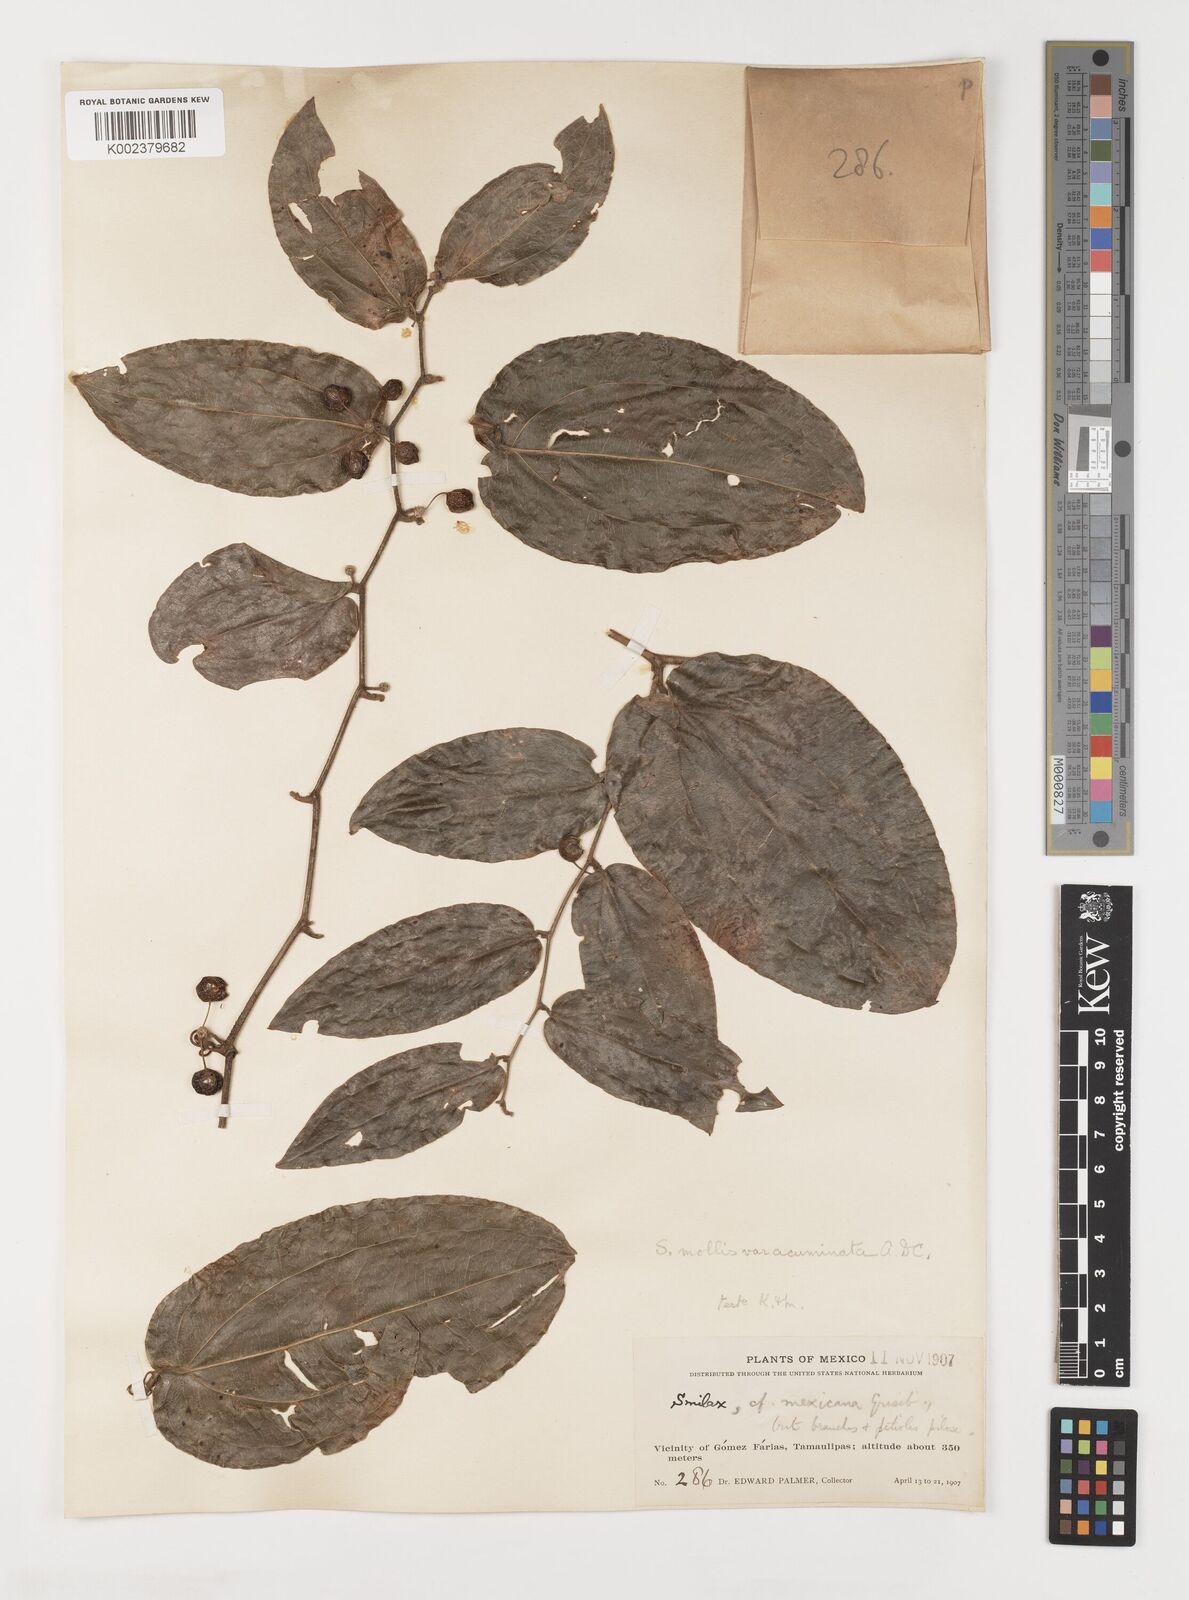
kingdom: Plantae
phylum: Tracheophyta
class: Liliopsida
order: Liliales
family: Smilacaceae
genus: Smilax
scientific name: Smilax mollis
